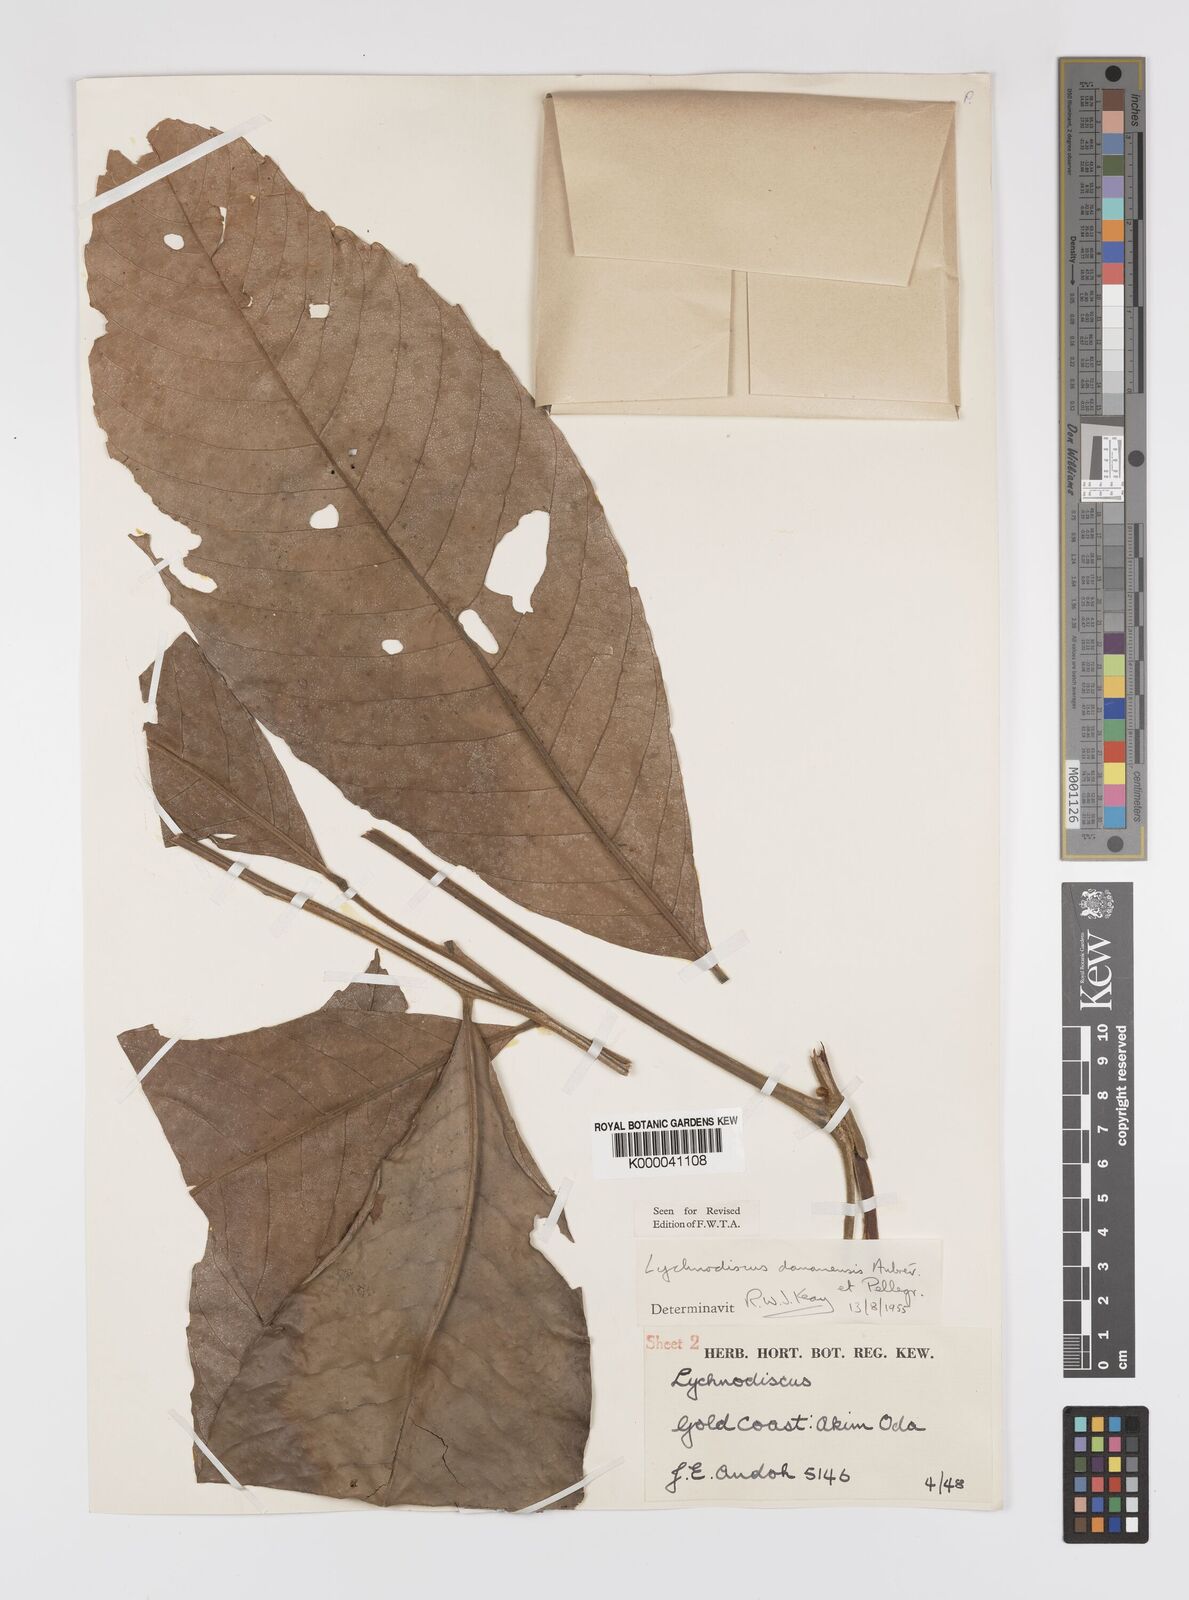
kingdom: Plantae
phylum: Tracheophyta
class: Magnoliopsida
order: Sapindales
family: Sapindaceae
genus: Lychnodiscus
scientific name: Lychnodiscus dananensis
